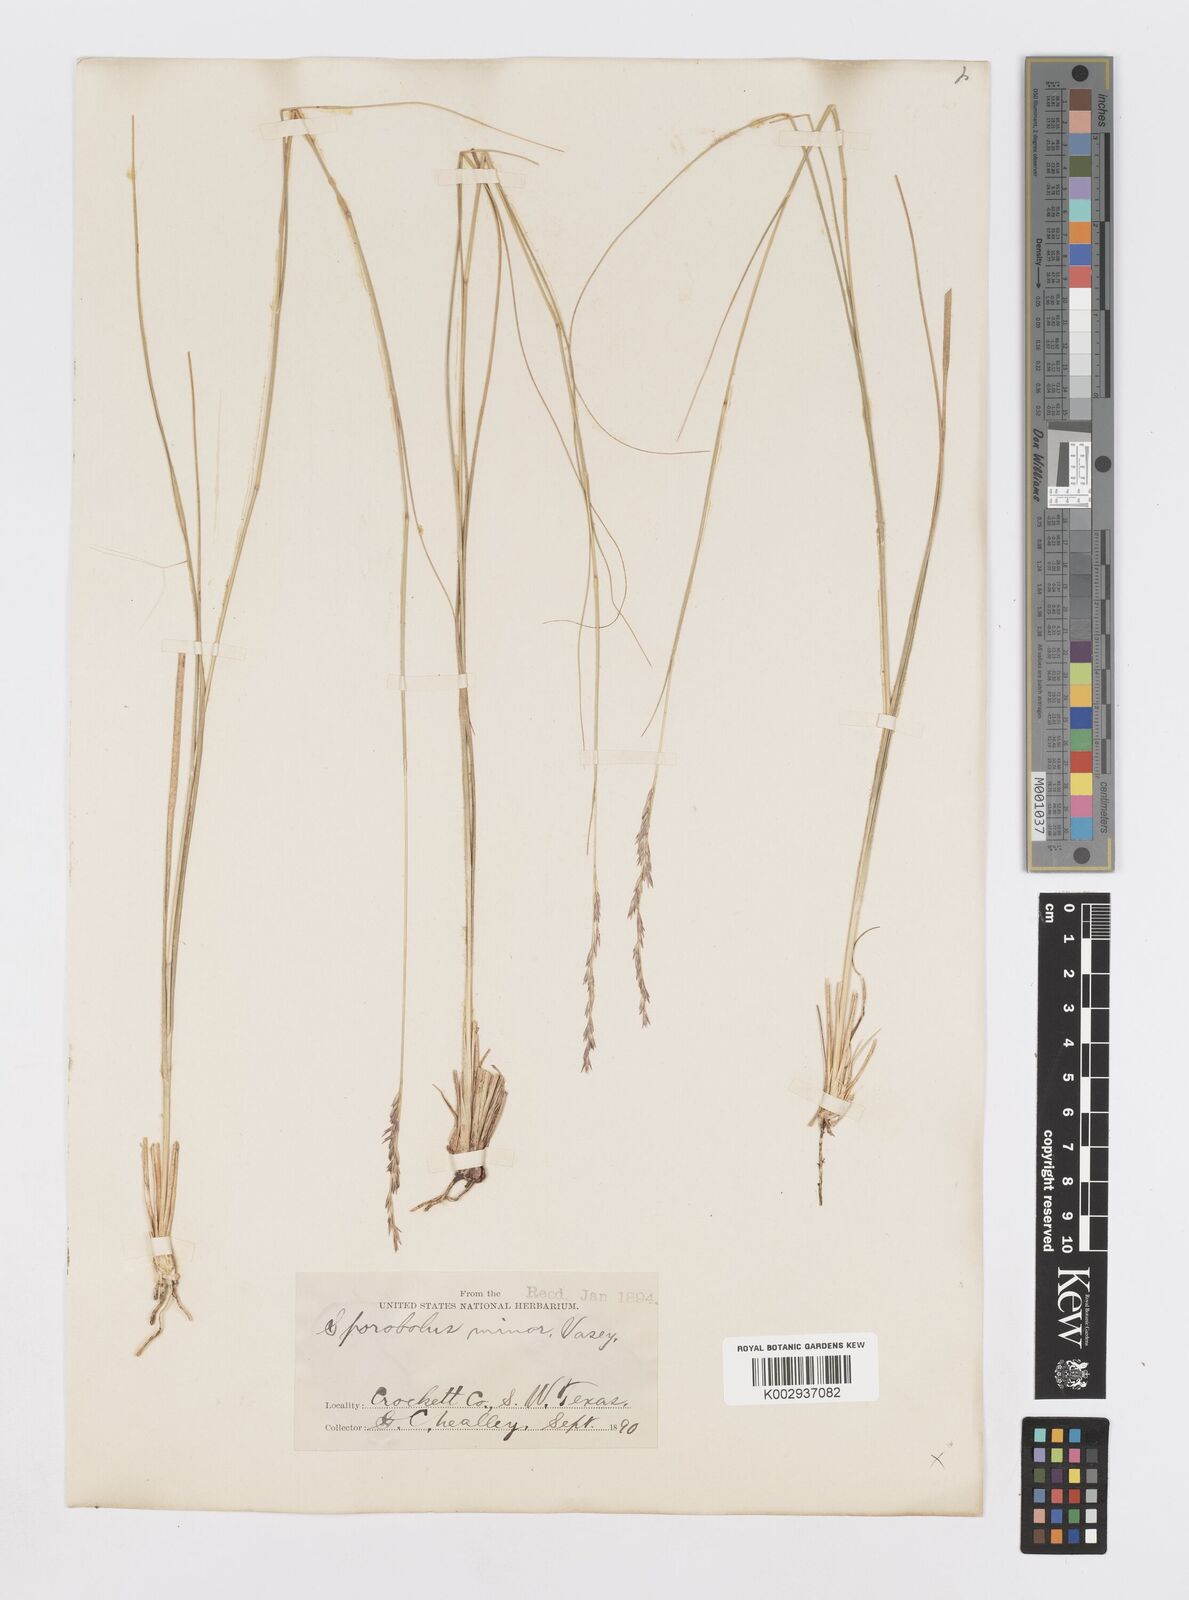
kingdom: Plantae
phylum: Tracheophyta
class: Liliopsida
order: Poales
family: Poaceae
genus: Sporobolus
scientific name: Sporobolus vaginiflorus
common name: Poverty dropseed
